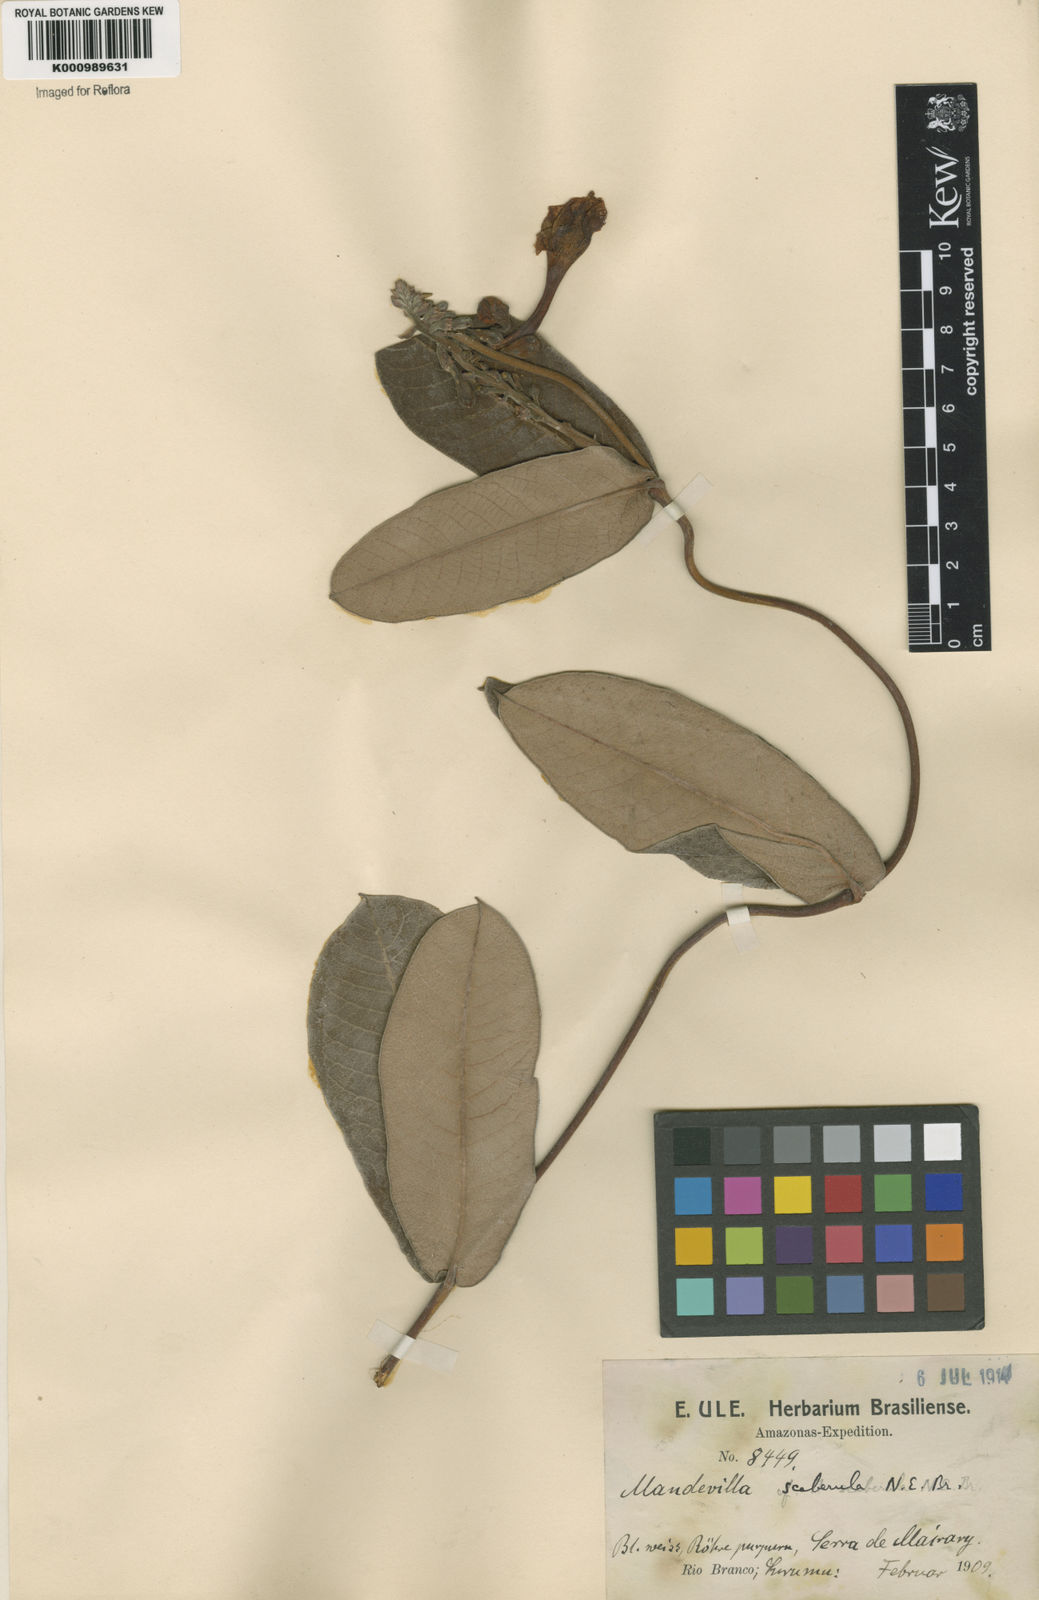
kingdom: Plantae
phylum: Tracheophyta
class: Magnoliopsida
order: Gentianales
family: Apocynaceae
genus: Mandevilla
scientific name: Mandevilla scaberula
